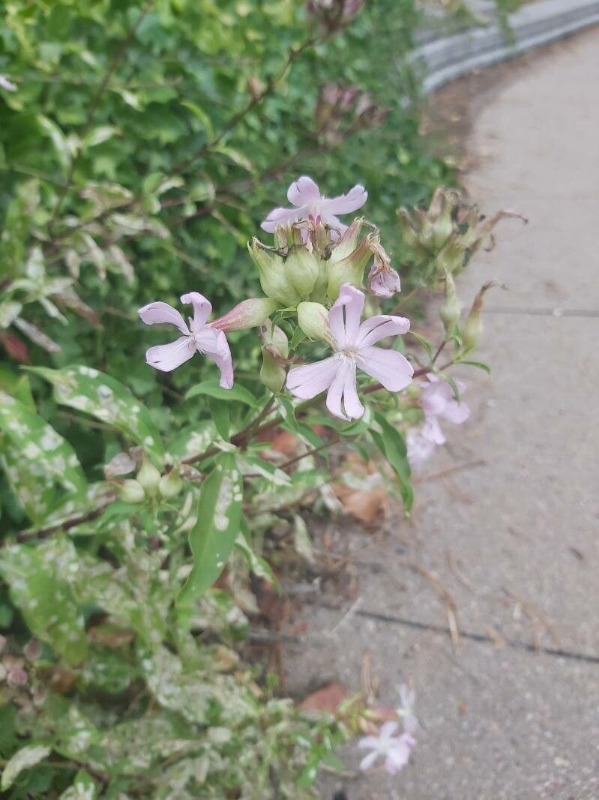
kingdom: Plantae
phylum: Tracheophyta
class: Magnoliopsida
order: Caryophyllales
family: Caryophyllaceae
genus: Saponaria
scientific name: Saponaria officinalis
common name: Sæbeurt
